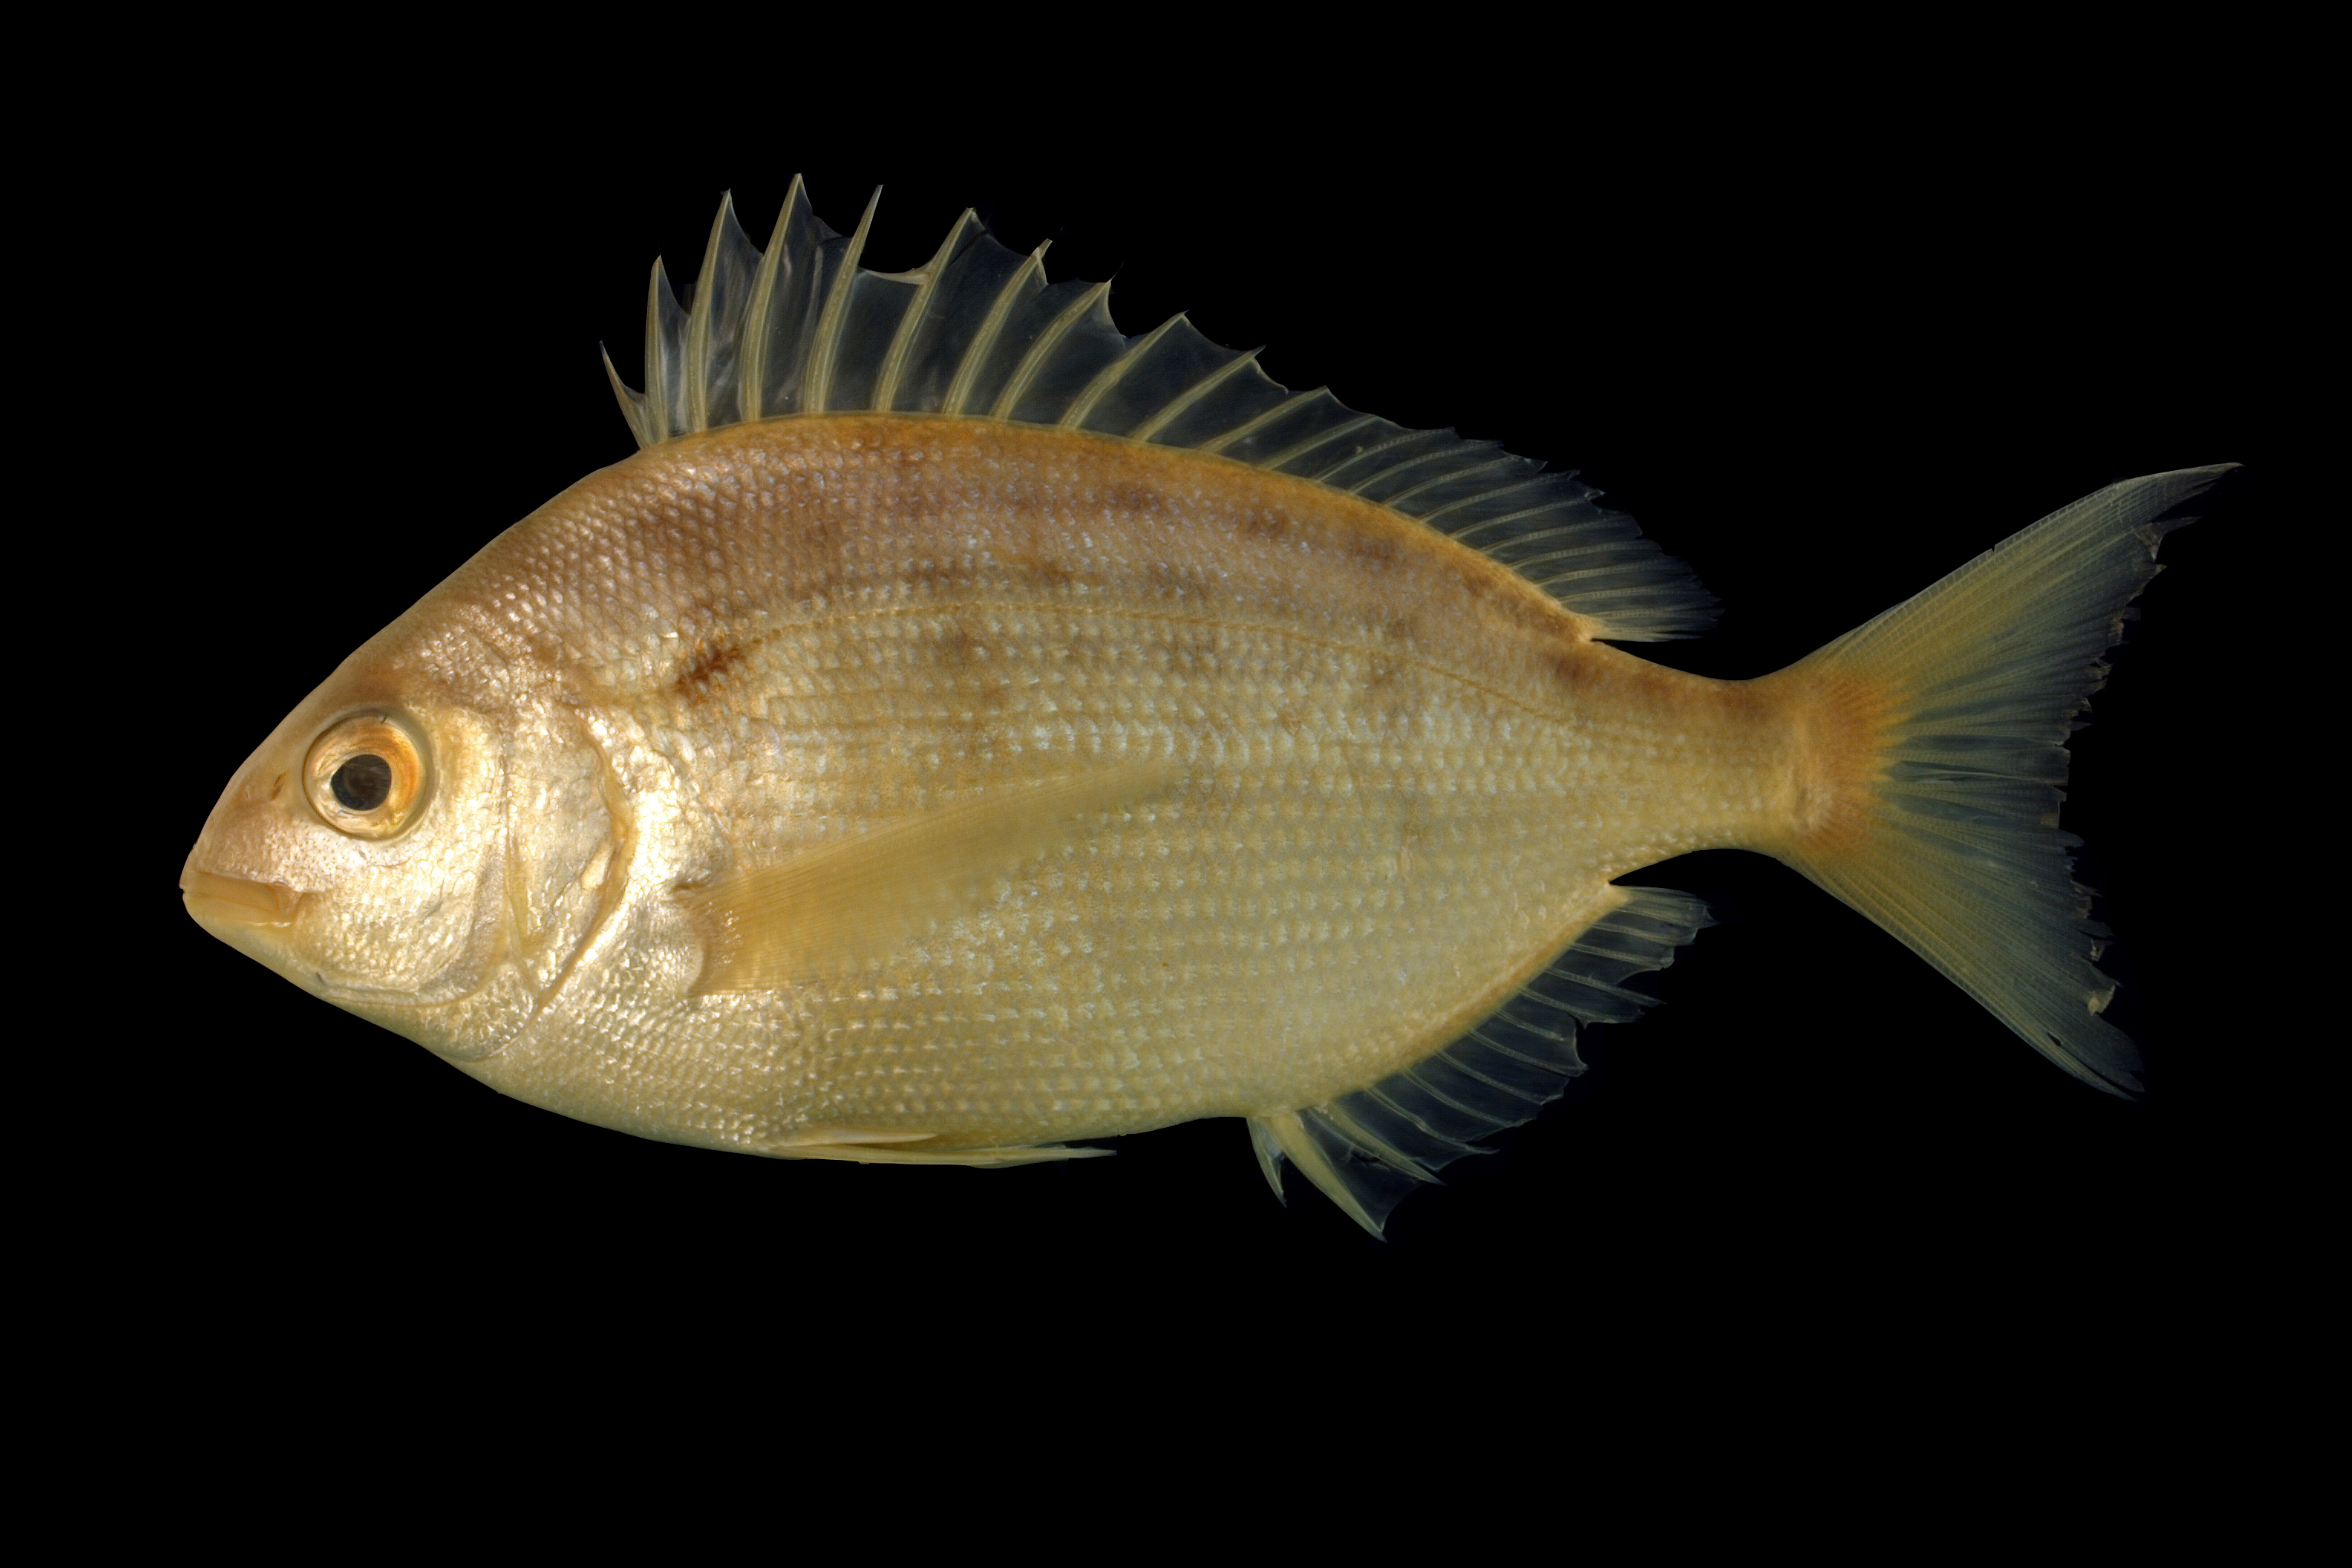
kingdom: Animalia
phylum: Chordata
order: Perciformes
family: Sparidae
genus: Lagodon
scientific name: Lagodon rhomboides
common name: Pinfish
